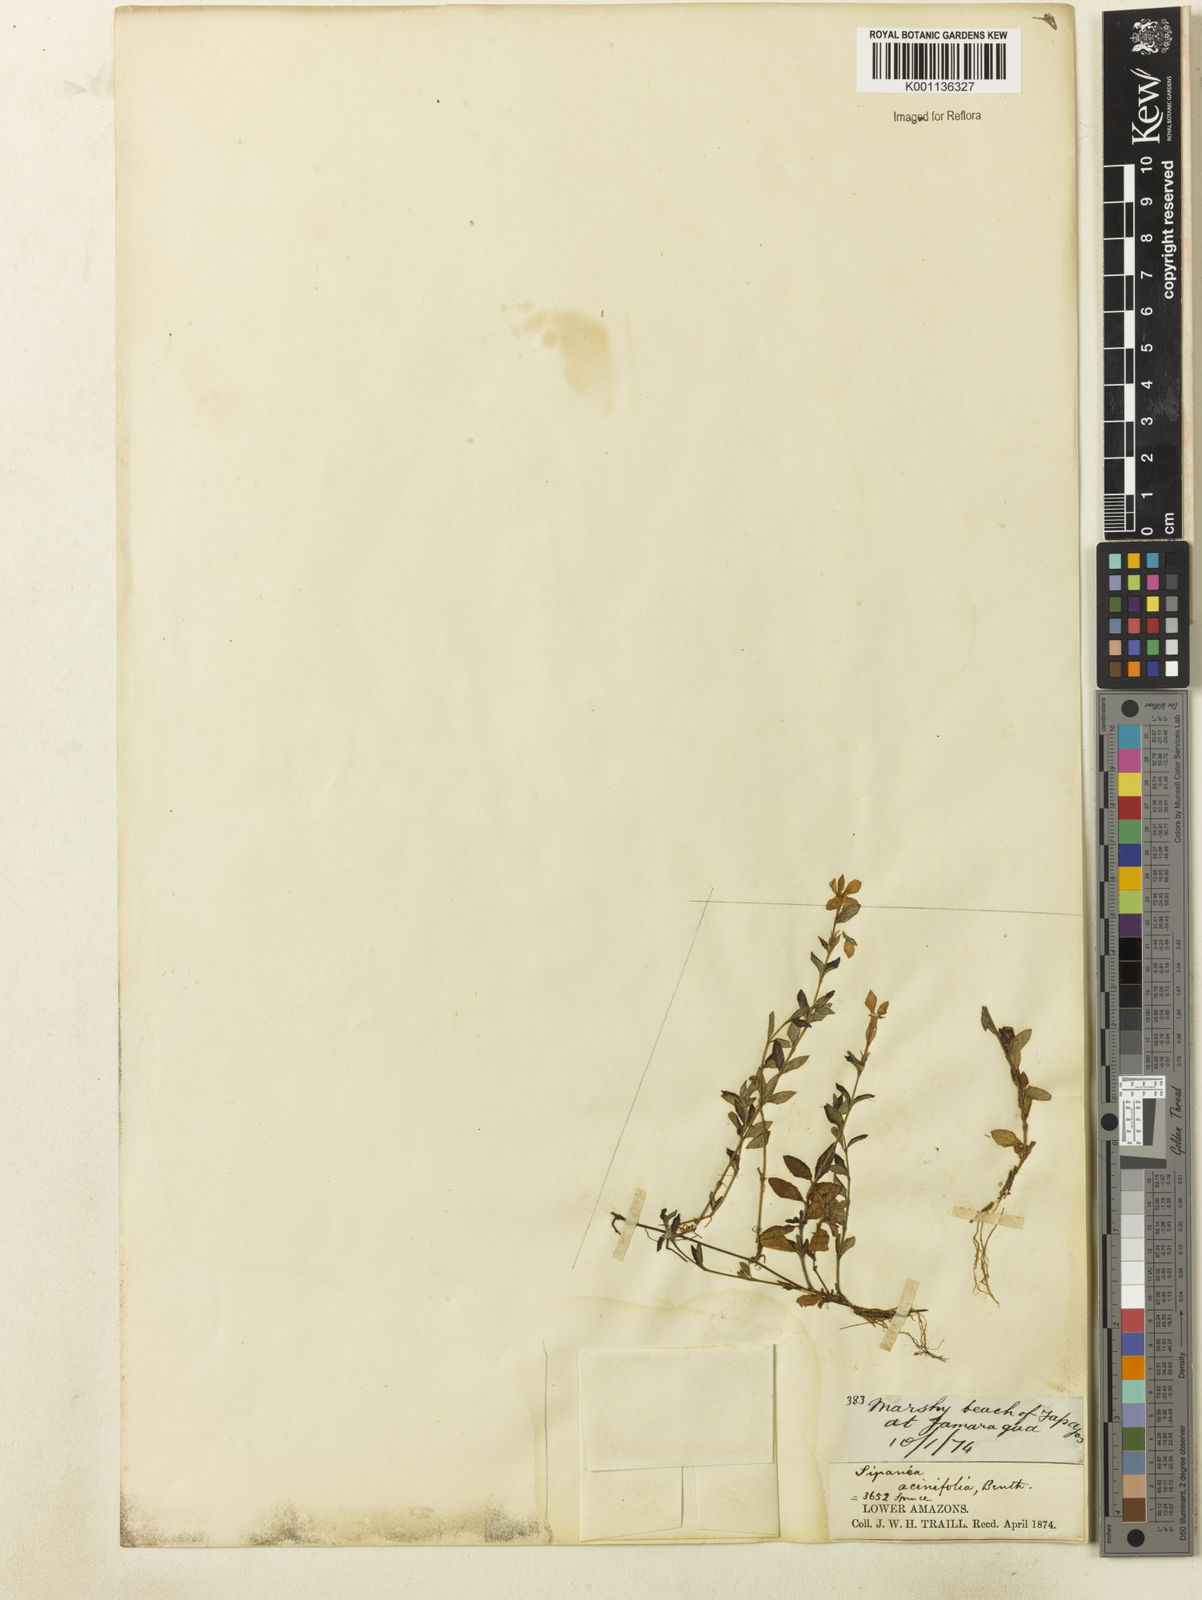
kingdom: Plantae
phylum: Tracheophyta
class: Magnoliopsida
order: Gentianales
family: Rubiaceae
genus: Sipanea
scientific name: Sipanea veris
